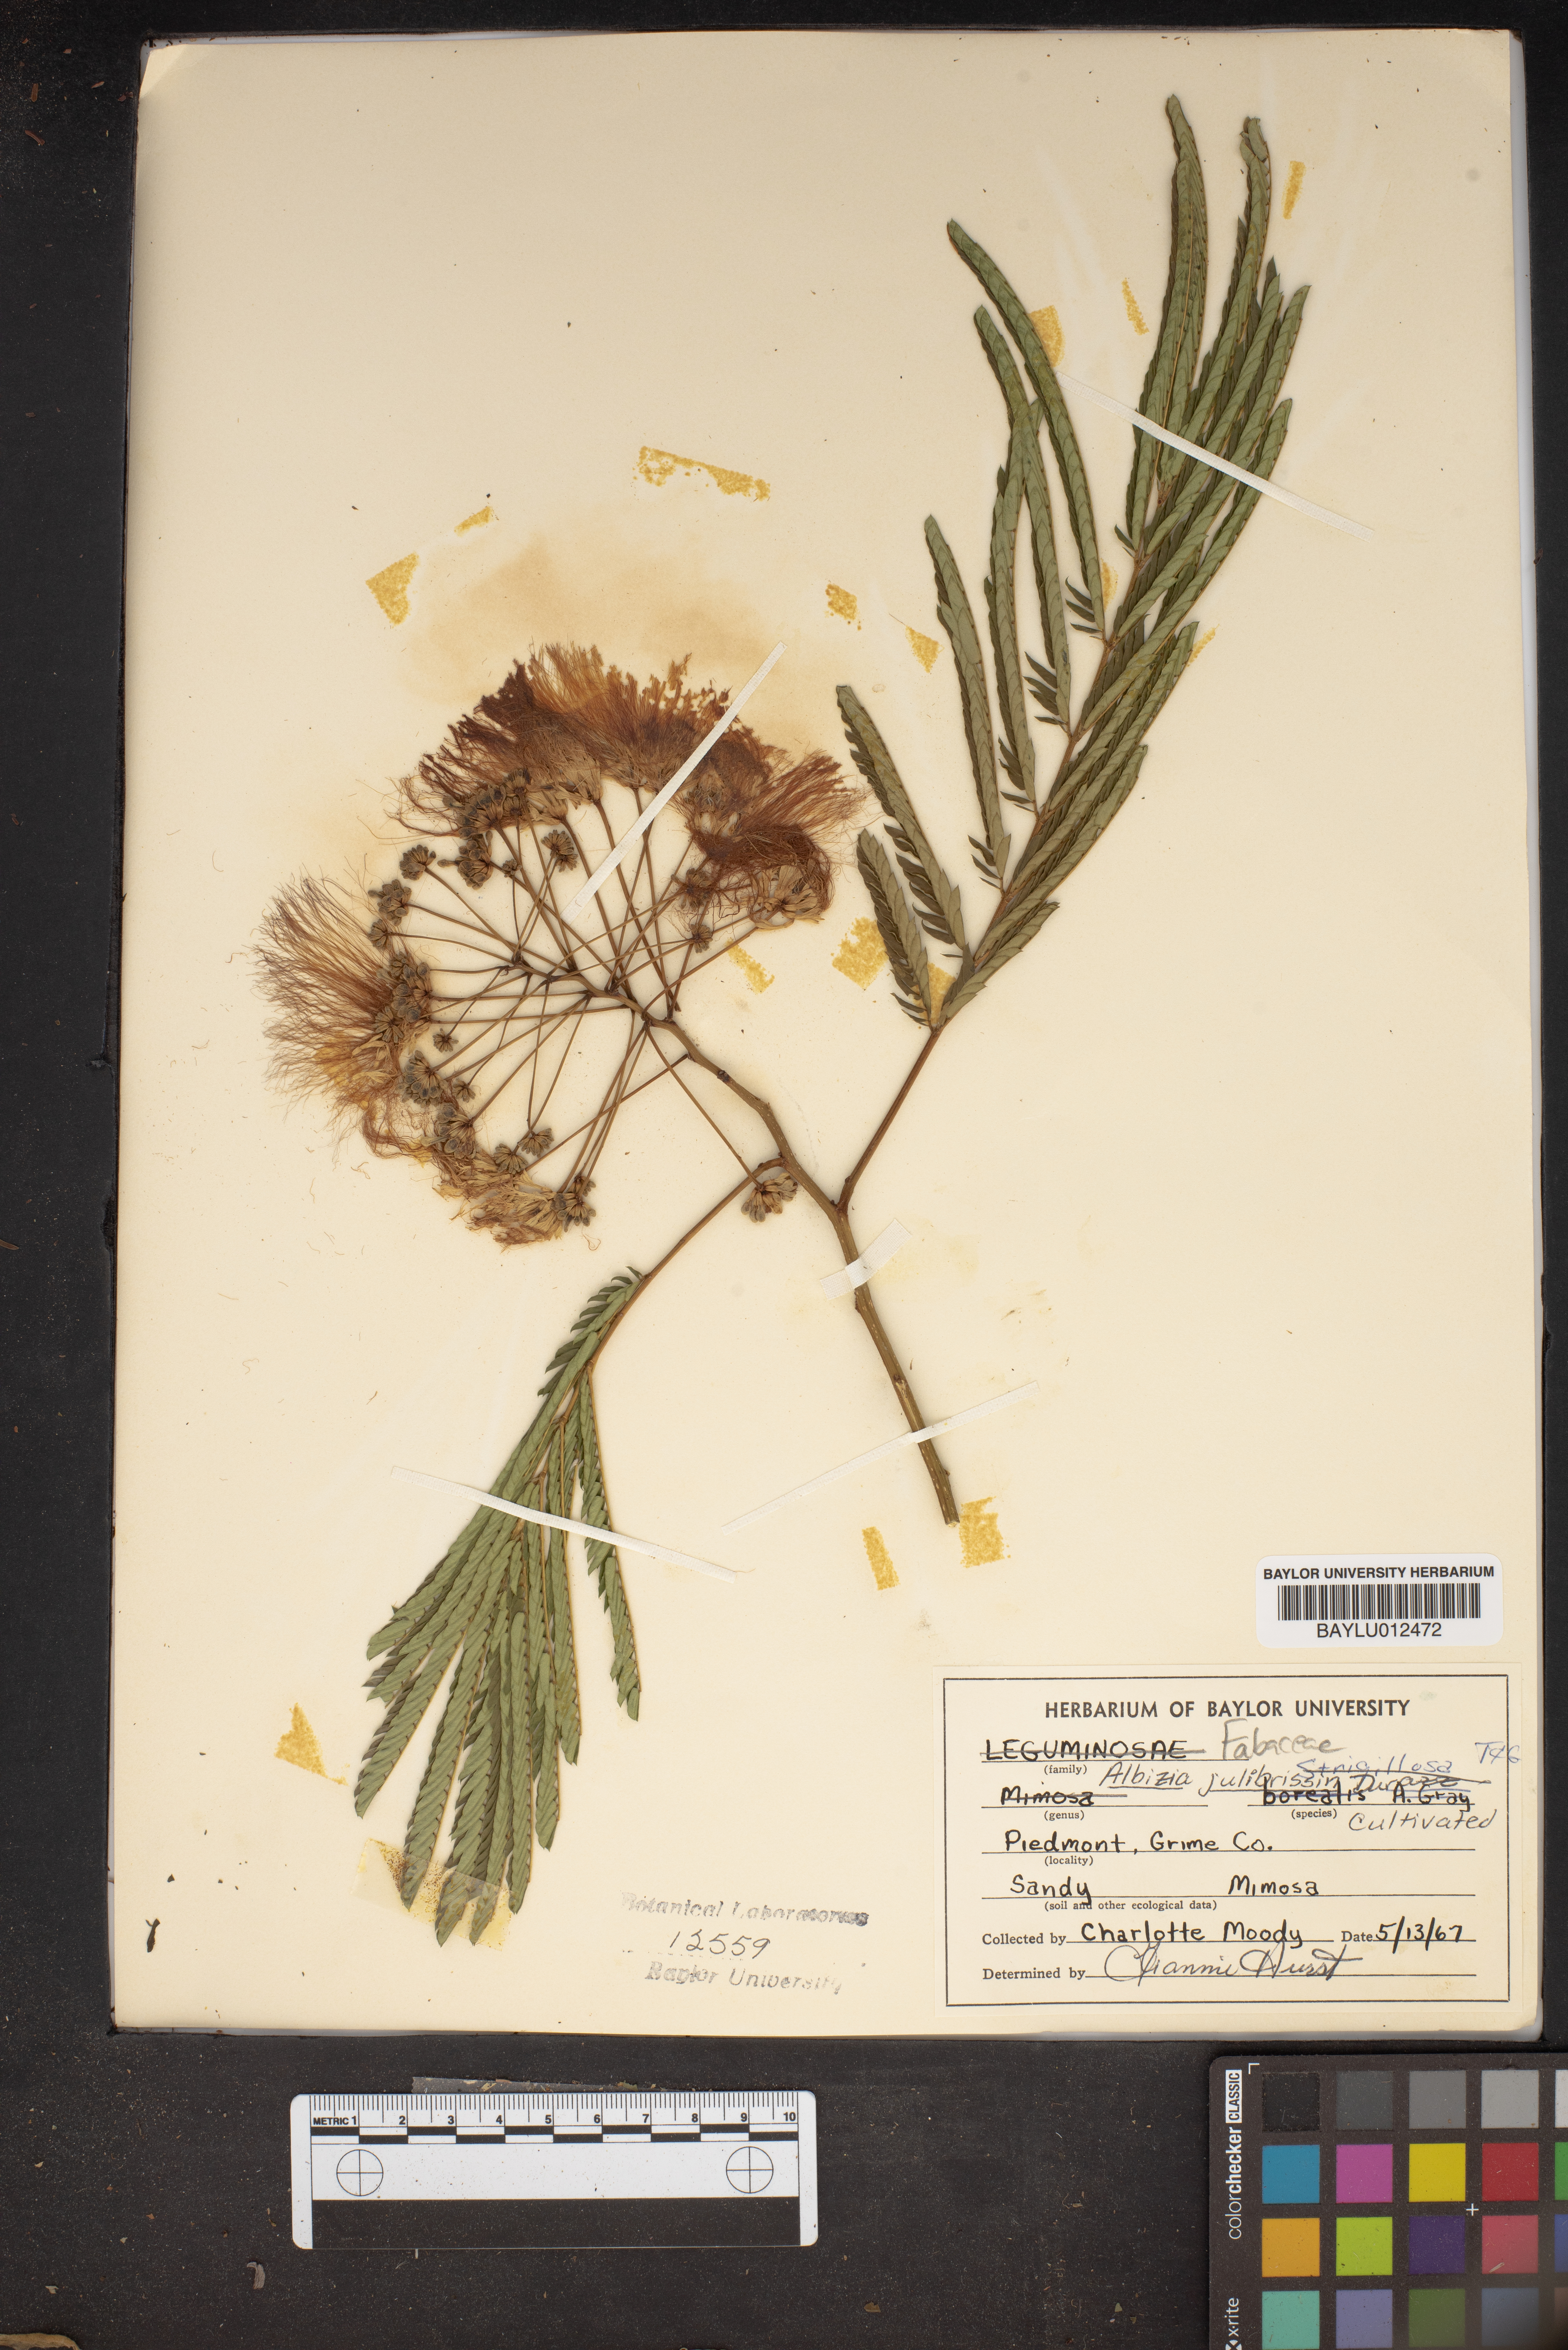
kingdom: Plantae
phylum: Tracheophyta
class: Magnoliopsida
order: Fabales
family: Fabaceae
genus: Albizia
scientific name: Albizia julibrissin
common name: Silktree
